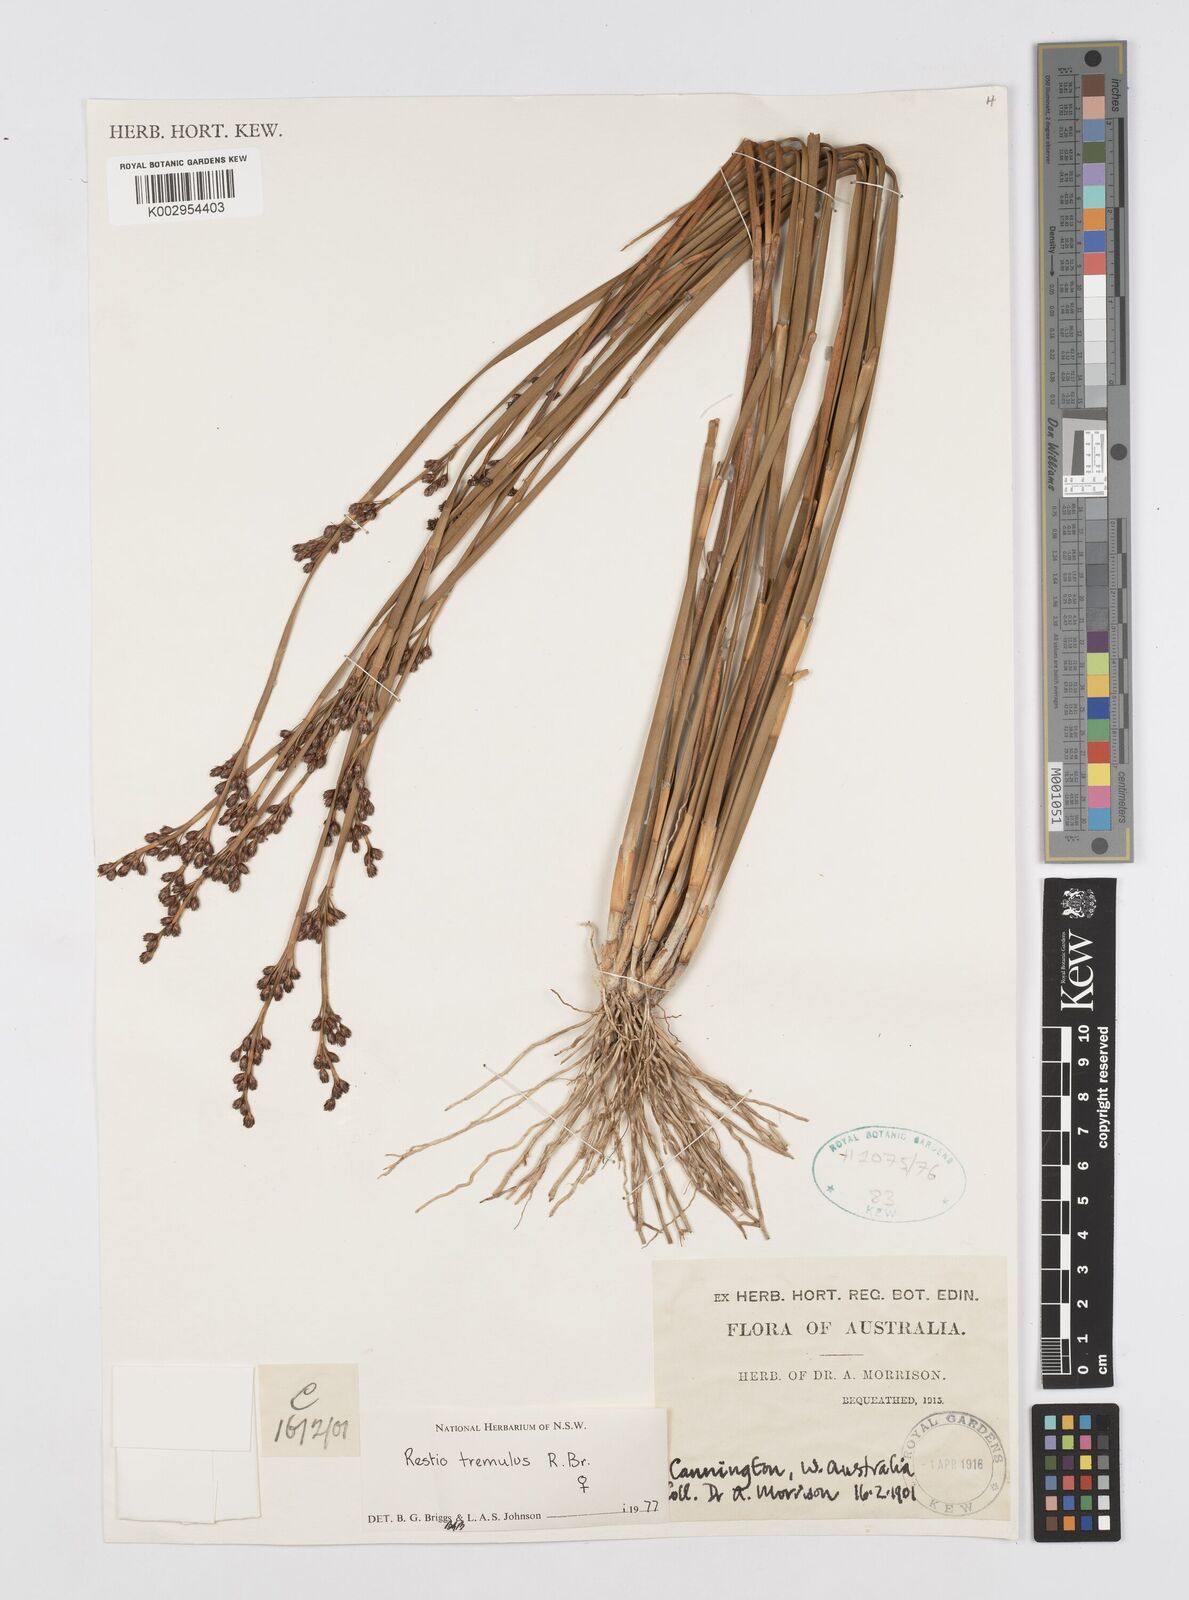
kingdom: Plantae
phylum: Tracheophyta
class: Liliopsida
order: Poales
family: Restionaceae
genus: Tremulina
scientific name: Tremulina tremula
